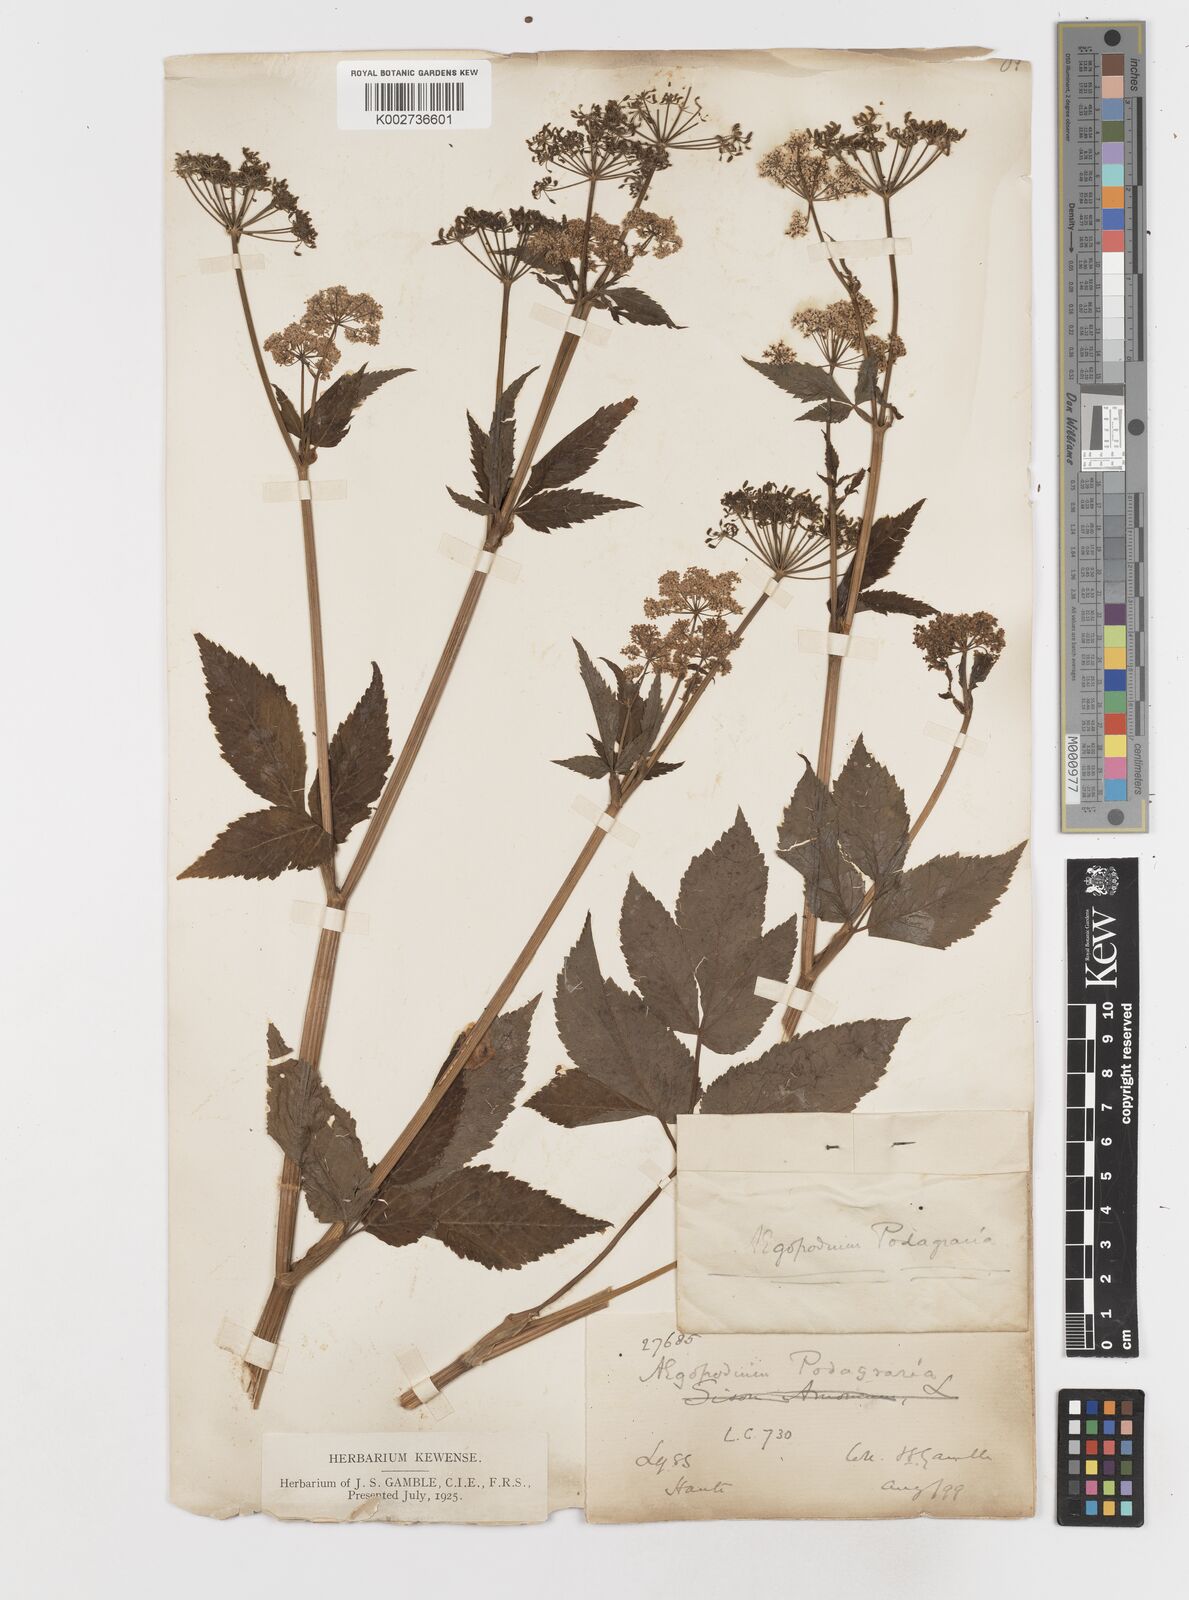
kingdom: Plantae
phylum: Tracheophyta
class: Magnoliopsida
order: Apiales
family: Apiaceae
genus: Aegopodium
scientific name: Aegopodium podagraria
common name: Ground-elder
